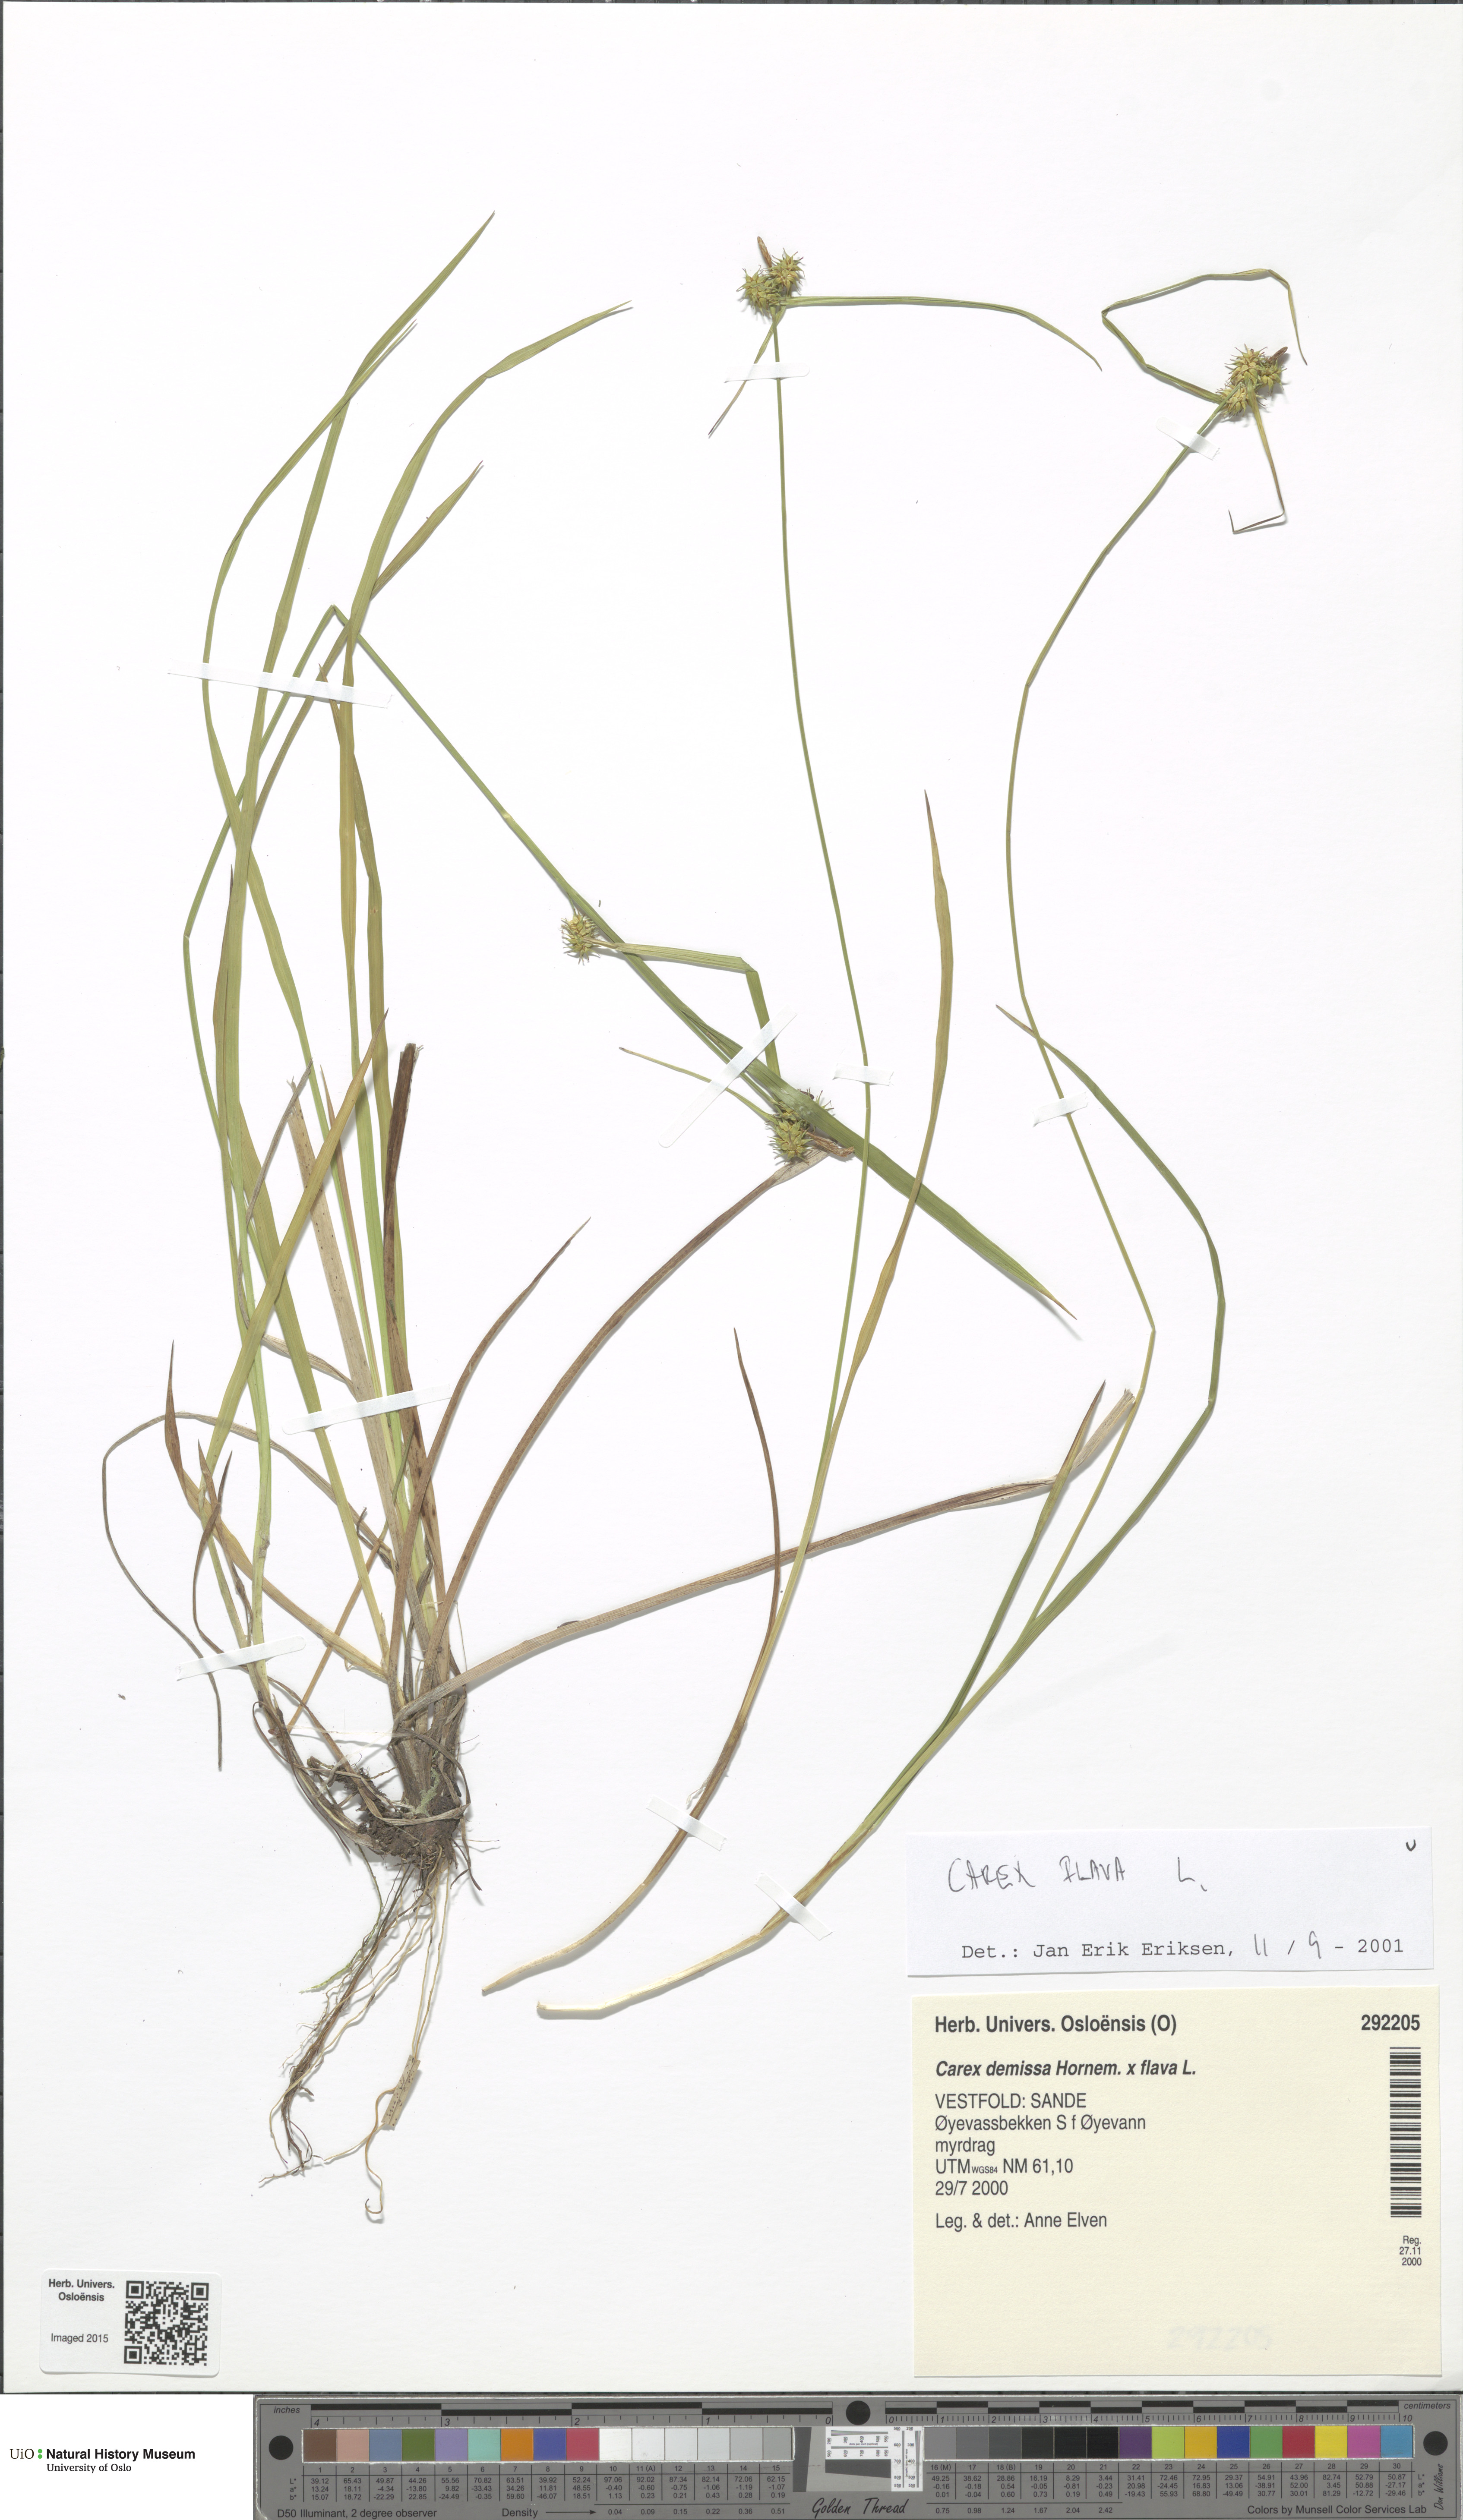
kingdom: Plantae
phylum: Tracheophyta
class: Liliopsida
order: Poales
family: Cyperaceae
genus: Carex
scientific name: Carex flava
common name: Large yellow-sedge
